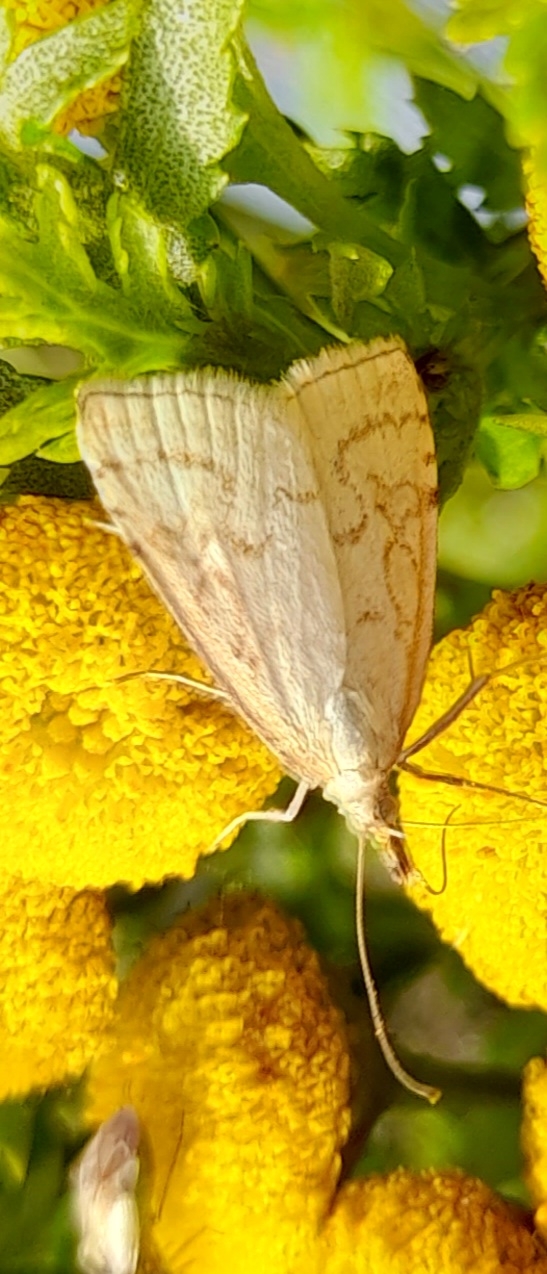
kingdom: Animalia
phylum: Arthropoda
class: Insecta
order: Lepidoptera
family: Crambidae
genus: Udea
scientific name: Udea lutealis
